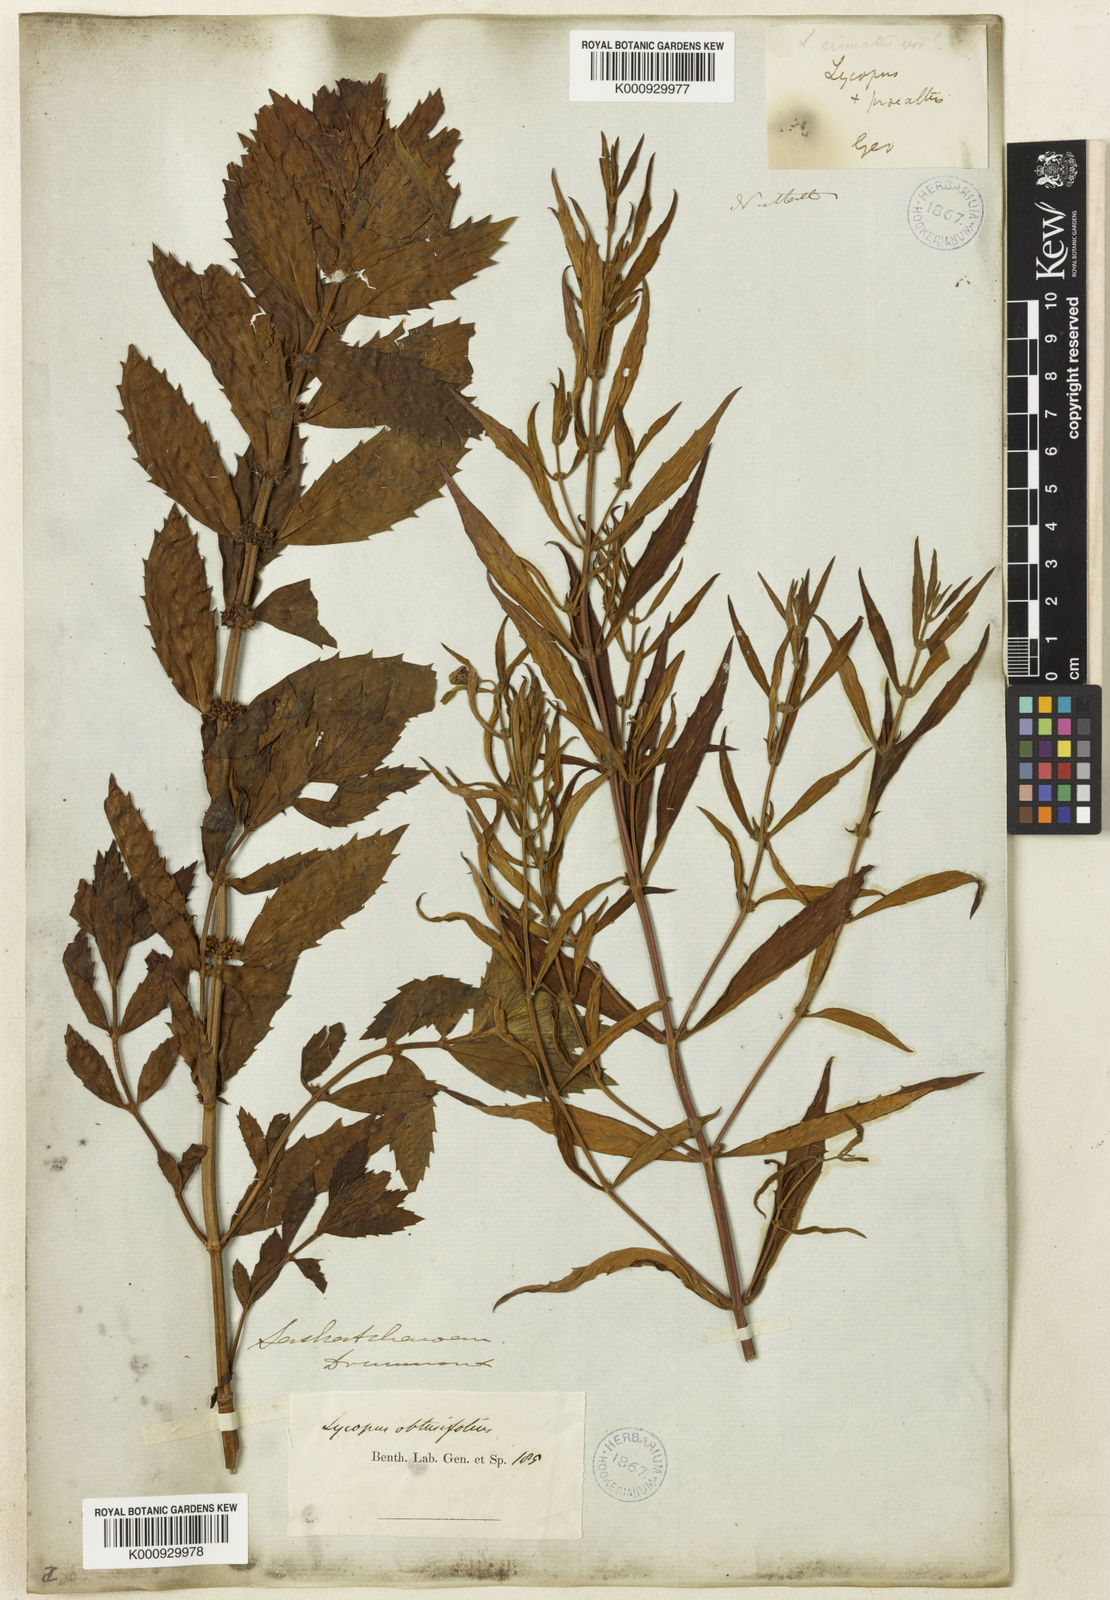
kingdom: Plantae
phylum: Tracheophyta
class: Magnoliopsida
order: Lamiales
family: Lamiaceae
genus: Lycopus
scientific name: Lycopus americanus
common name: American bugleweed
